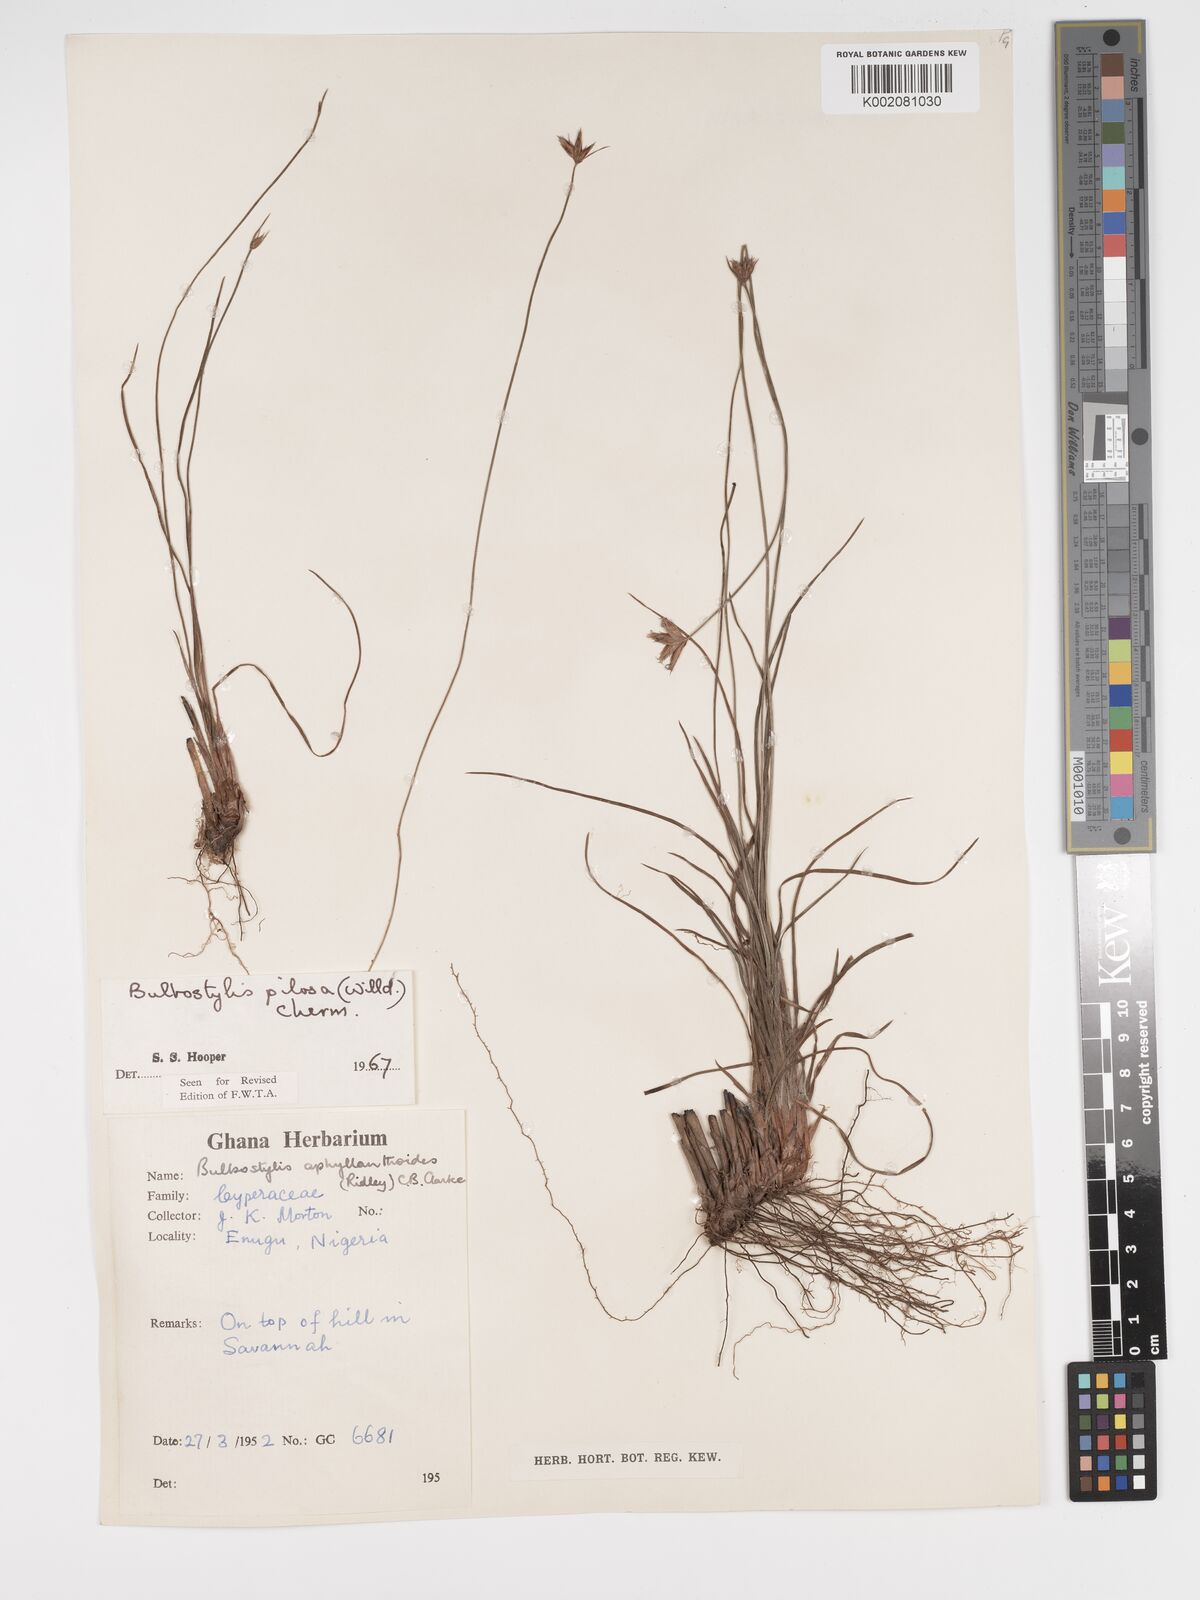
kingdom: Plantae
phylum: Tracheophyta
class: Liliopsida
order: Poales
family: Cyperaceae
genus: Bulbostylis
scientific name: Bulbostylis pilosa
